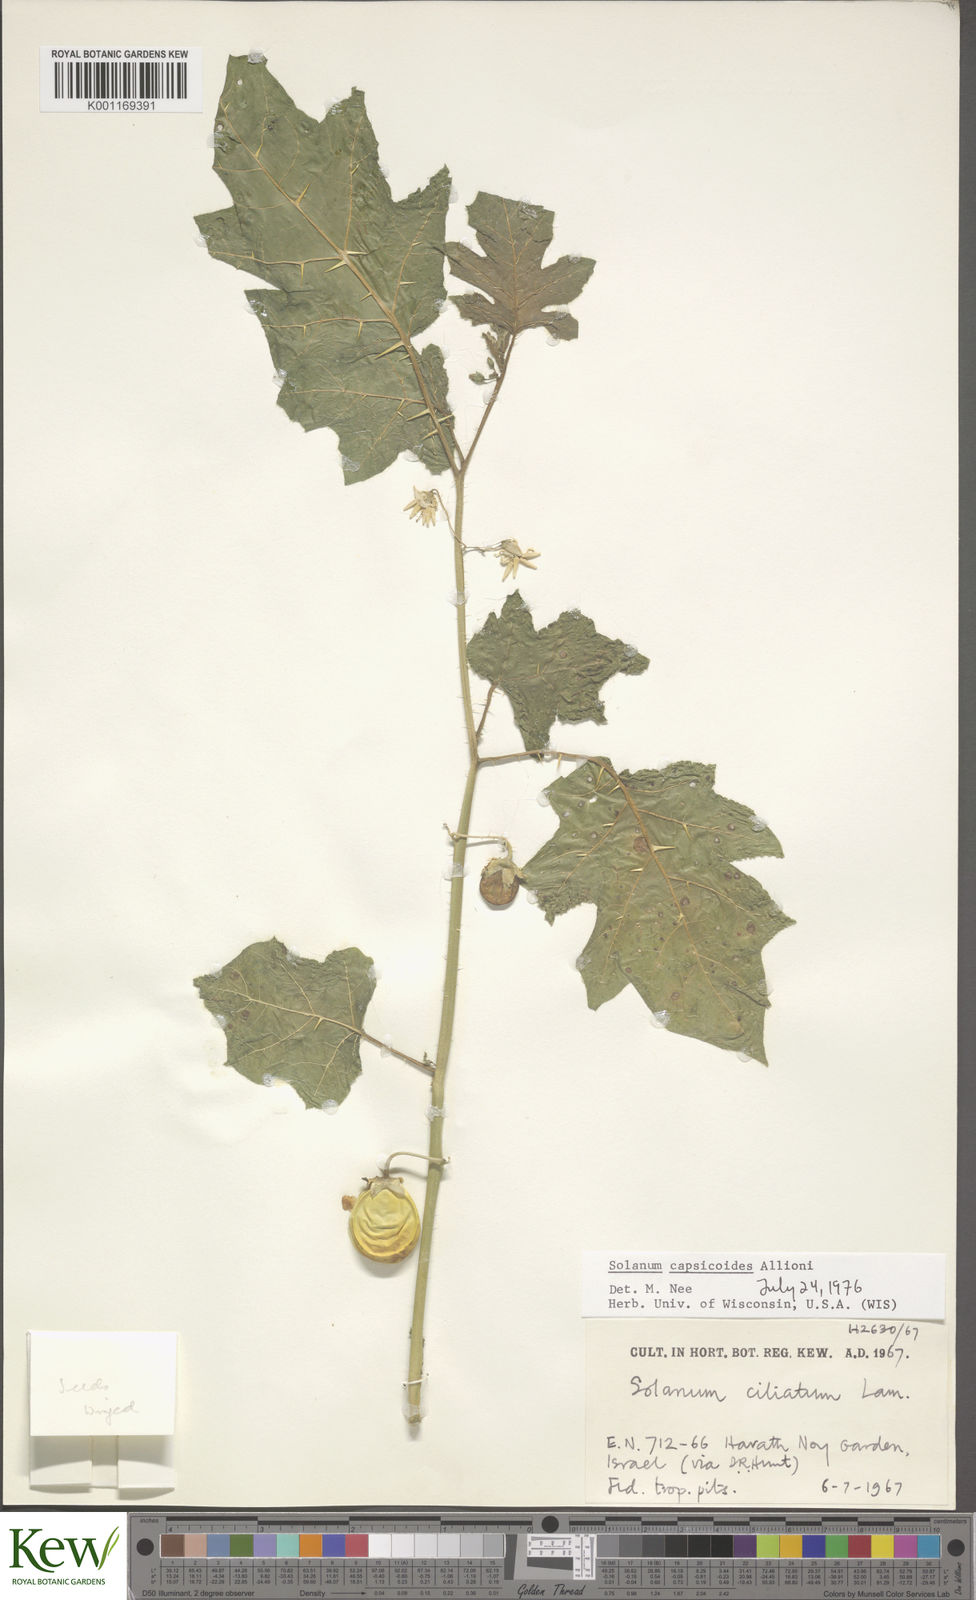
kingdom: Plantae
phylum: Tracheophyta
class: Magnoliopsida
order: Solanales
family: Solanaceae
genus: Solanum
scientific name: Solanum capsicoides
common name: Cockroach berry
